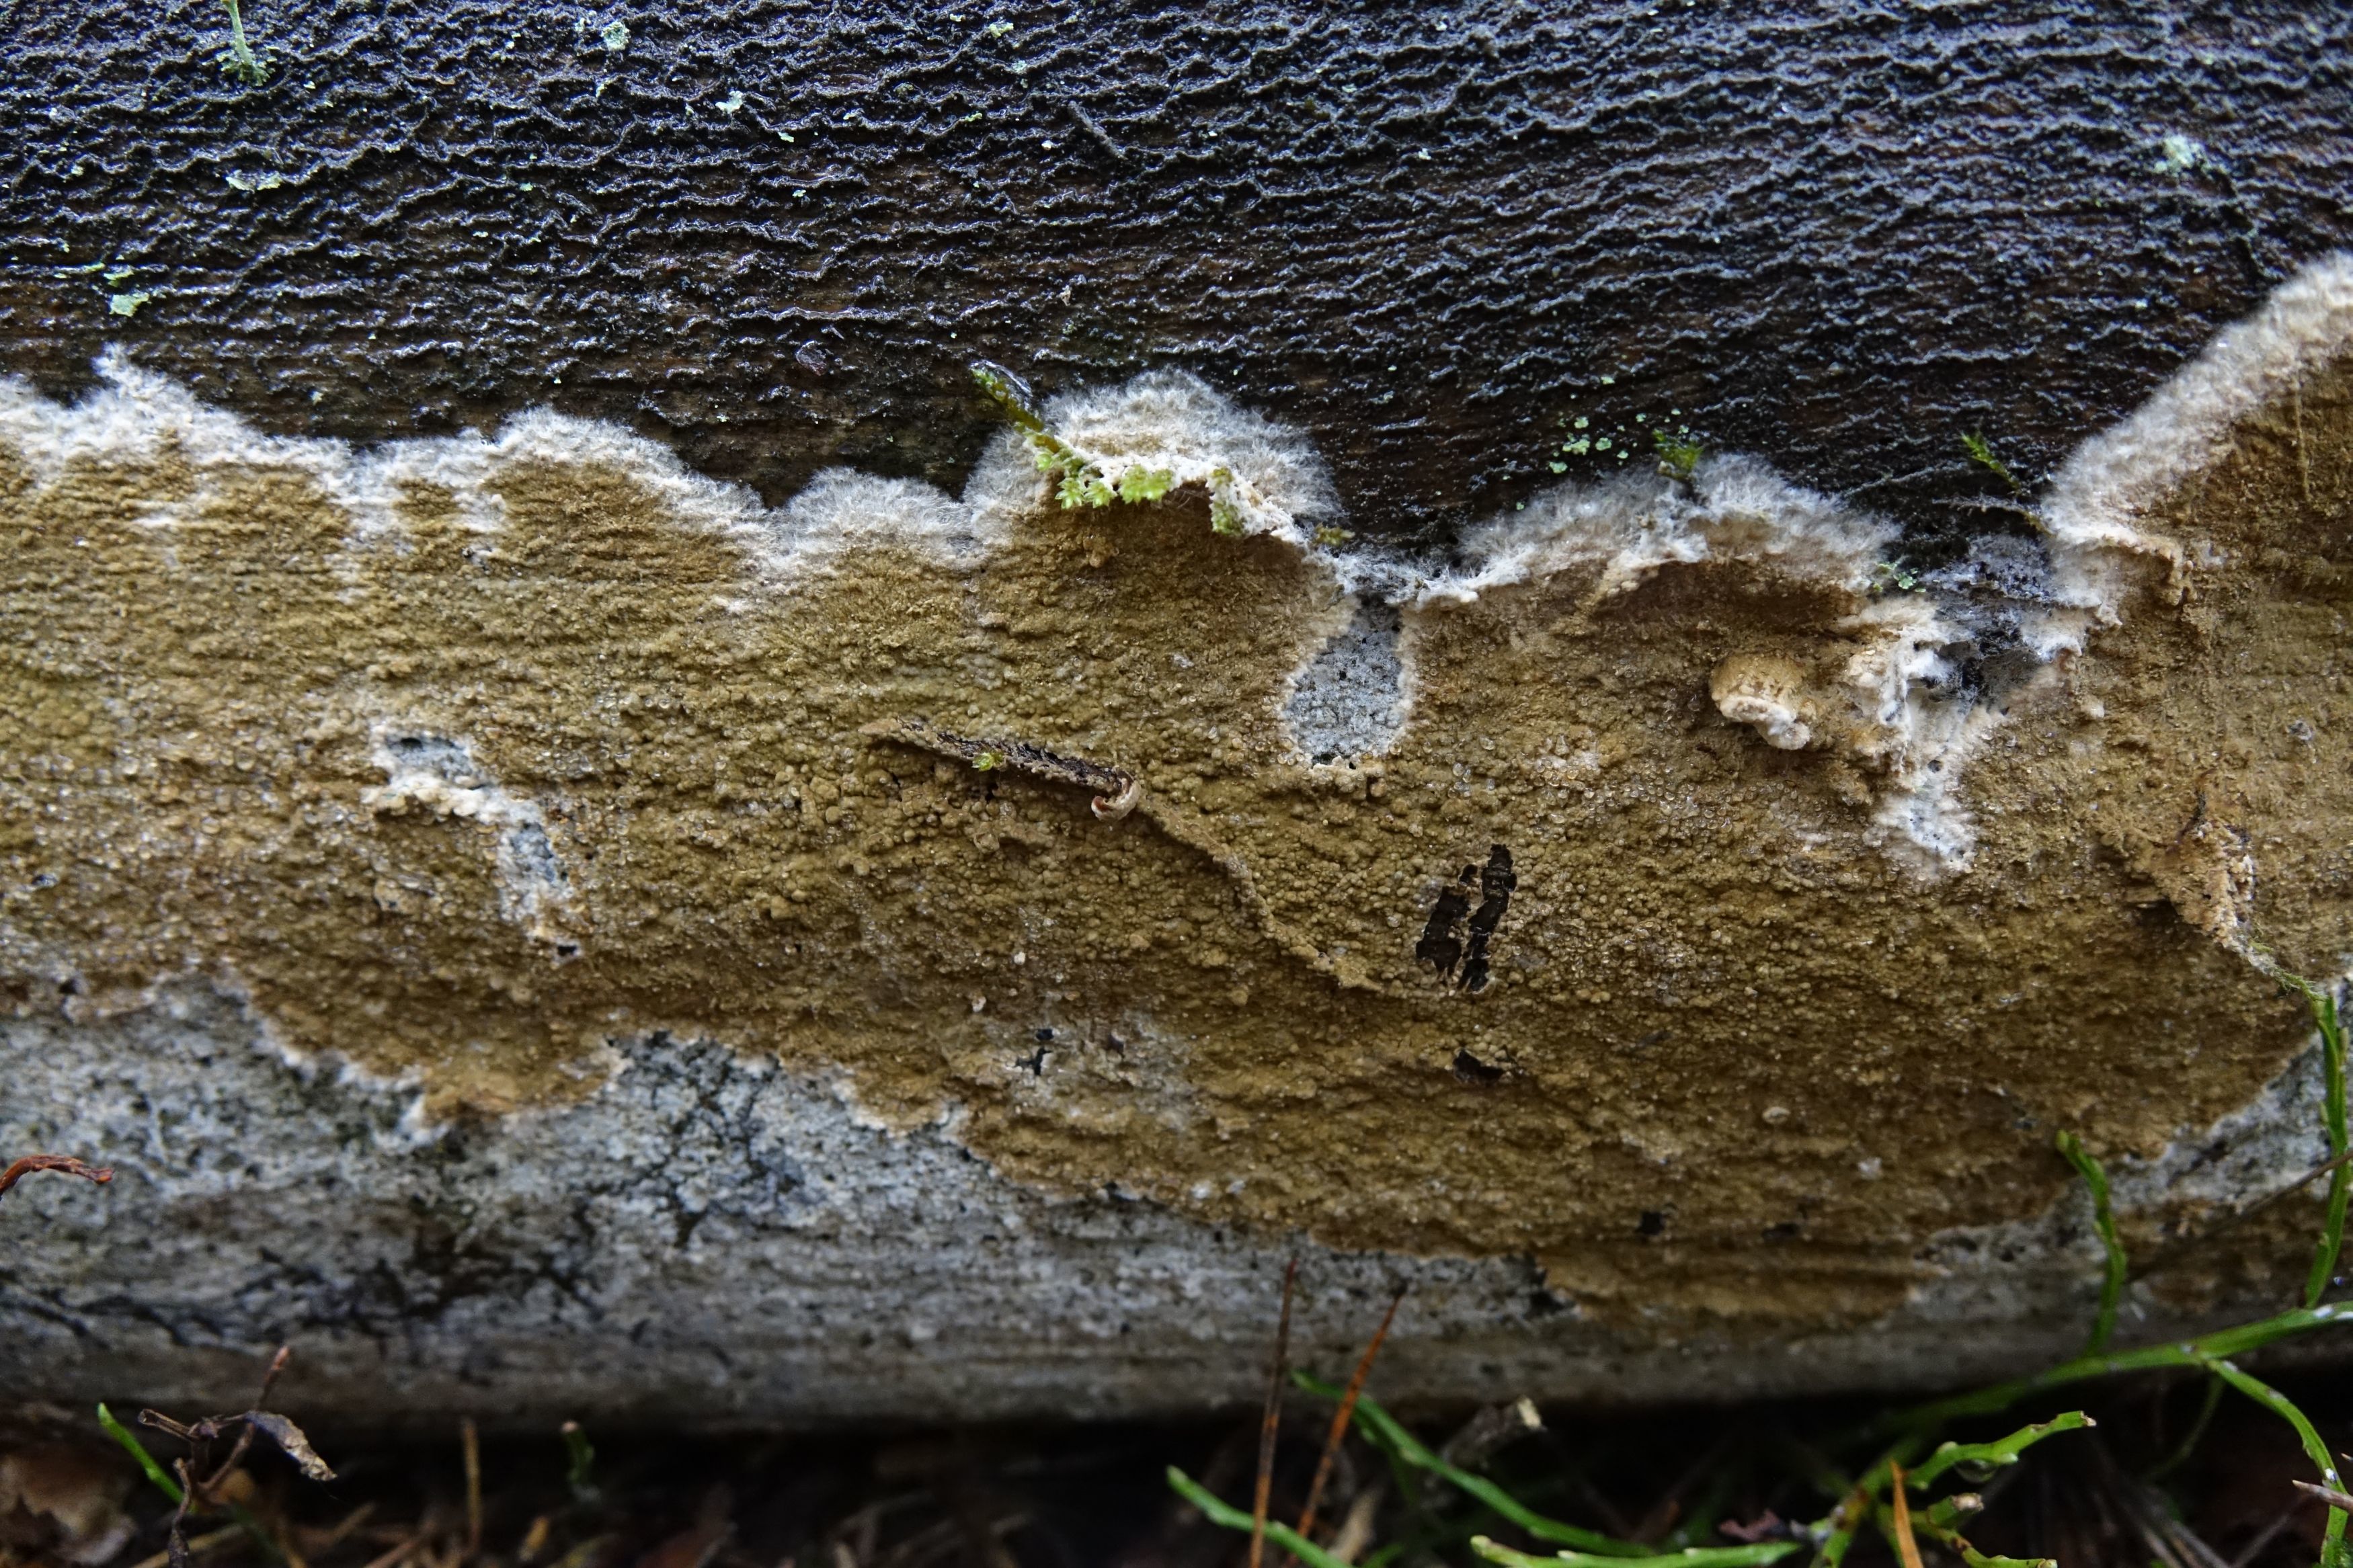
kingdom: Fungi
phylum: Basidiomycota
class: Agaricomycetes
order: Corticiales
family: Corticiaceae
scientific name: Corticiaceae
